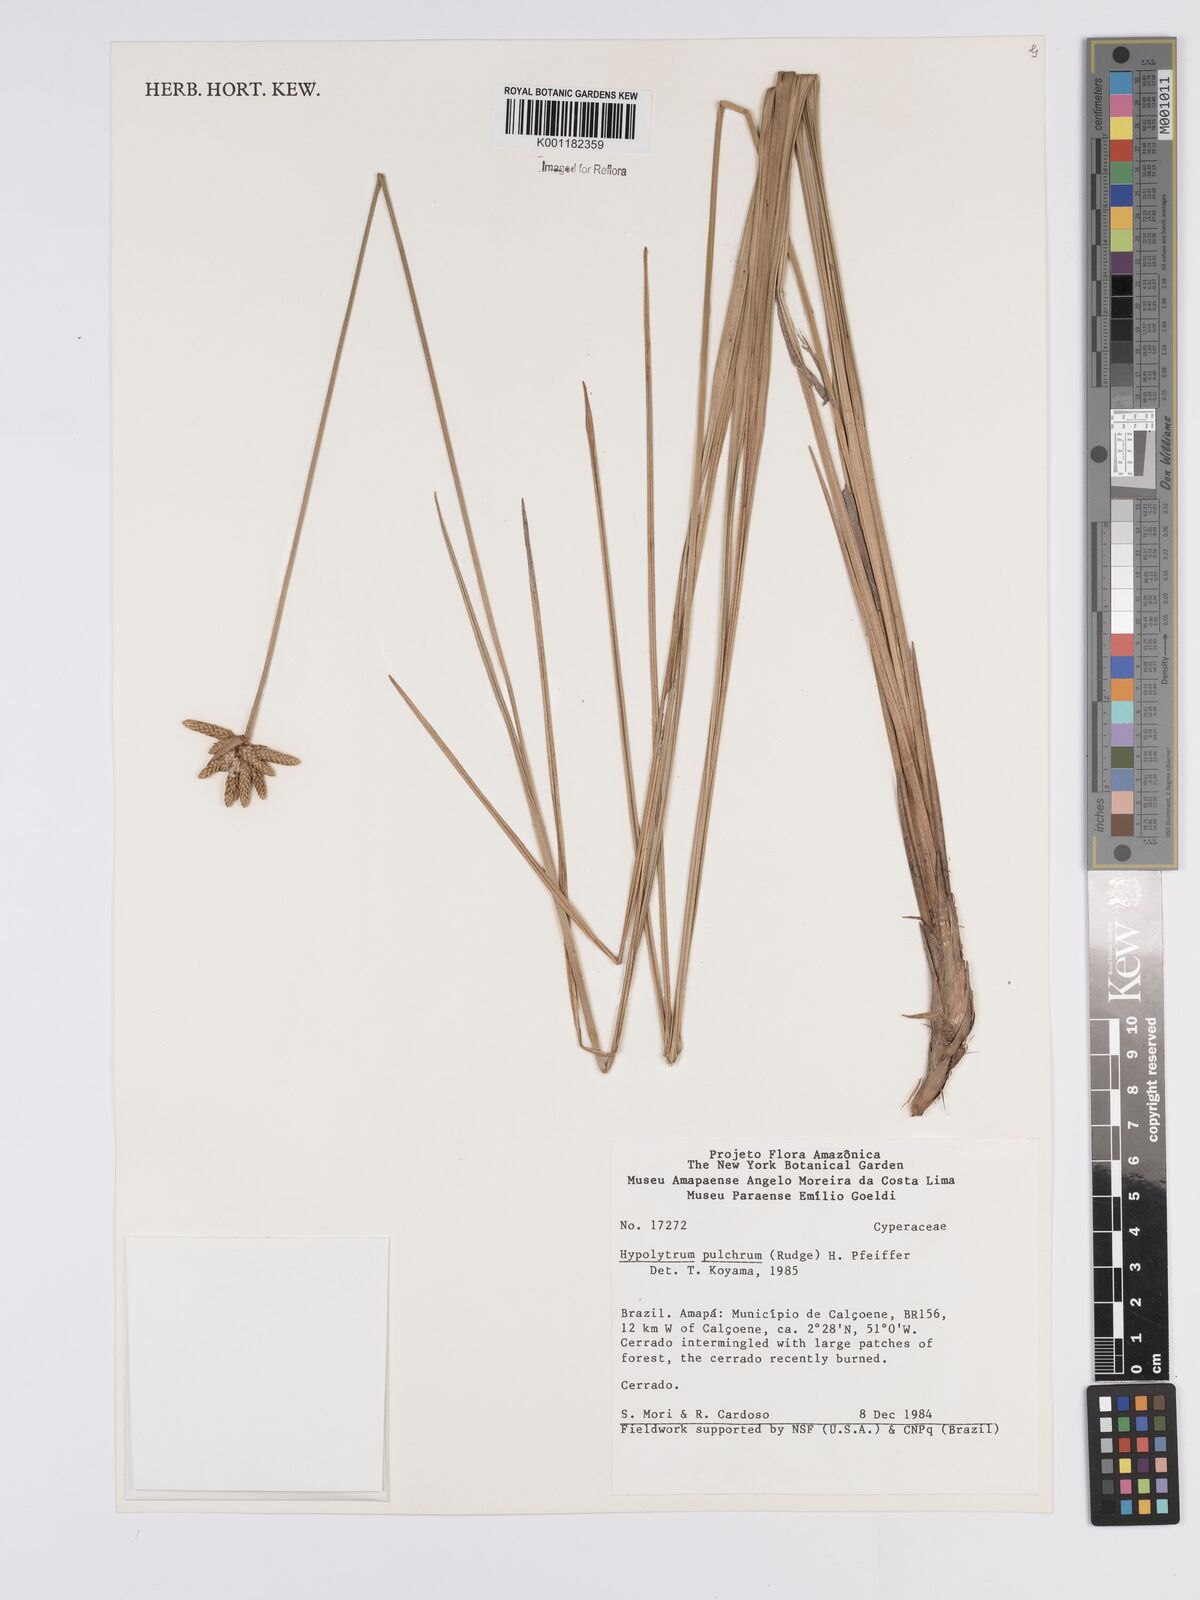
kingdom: Plantae
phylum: Tracheophyta
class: Liliopsida
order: Poales
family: Cyperaceae
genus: Hypolytrum
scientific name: Hypolytrum pulchrum
